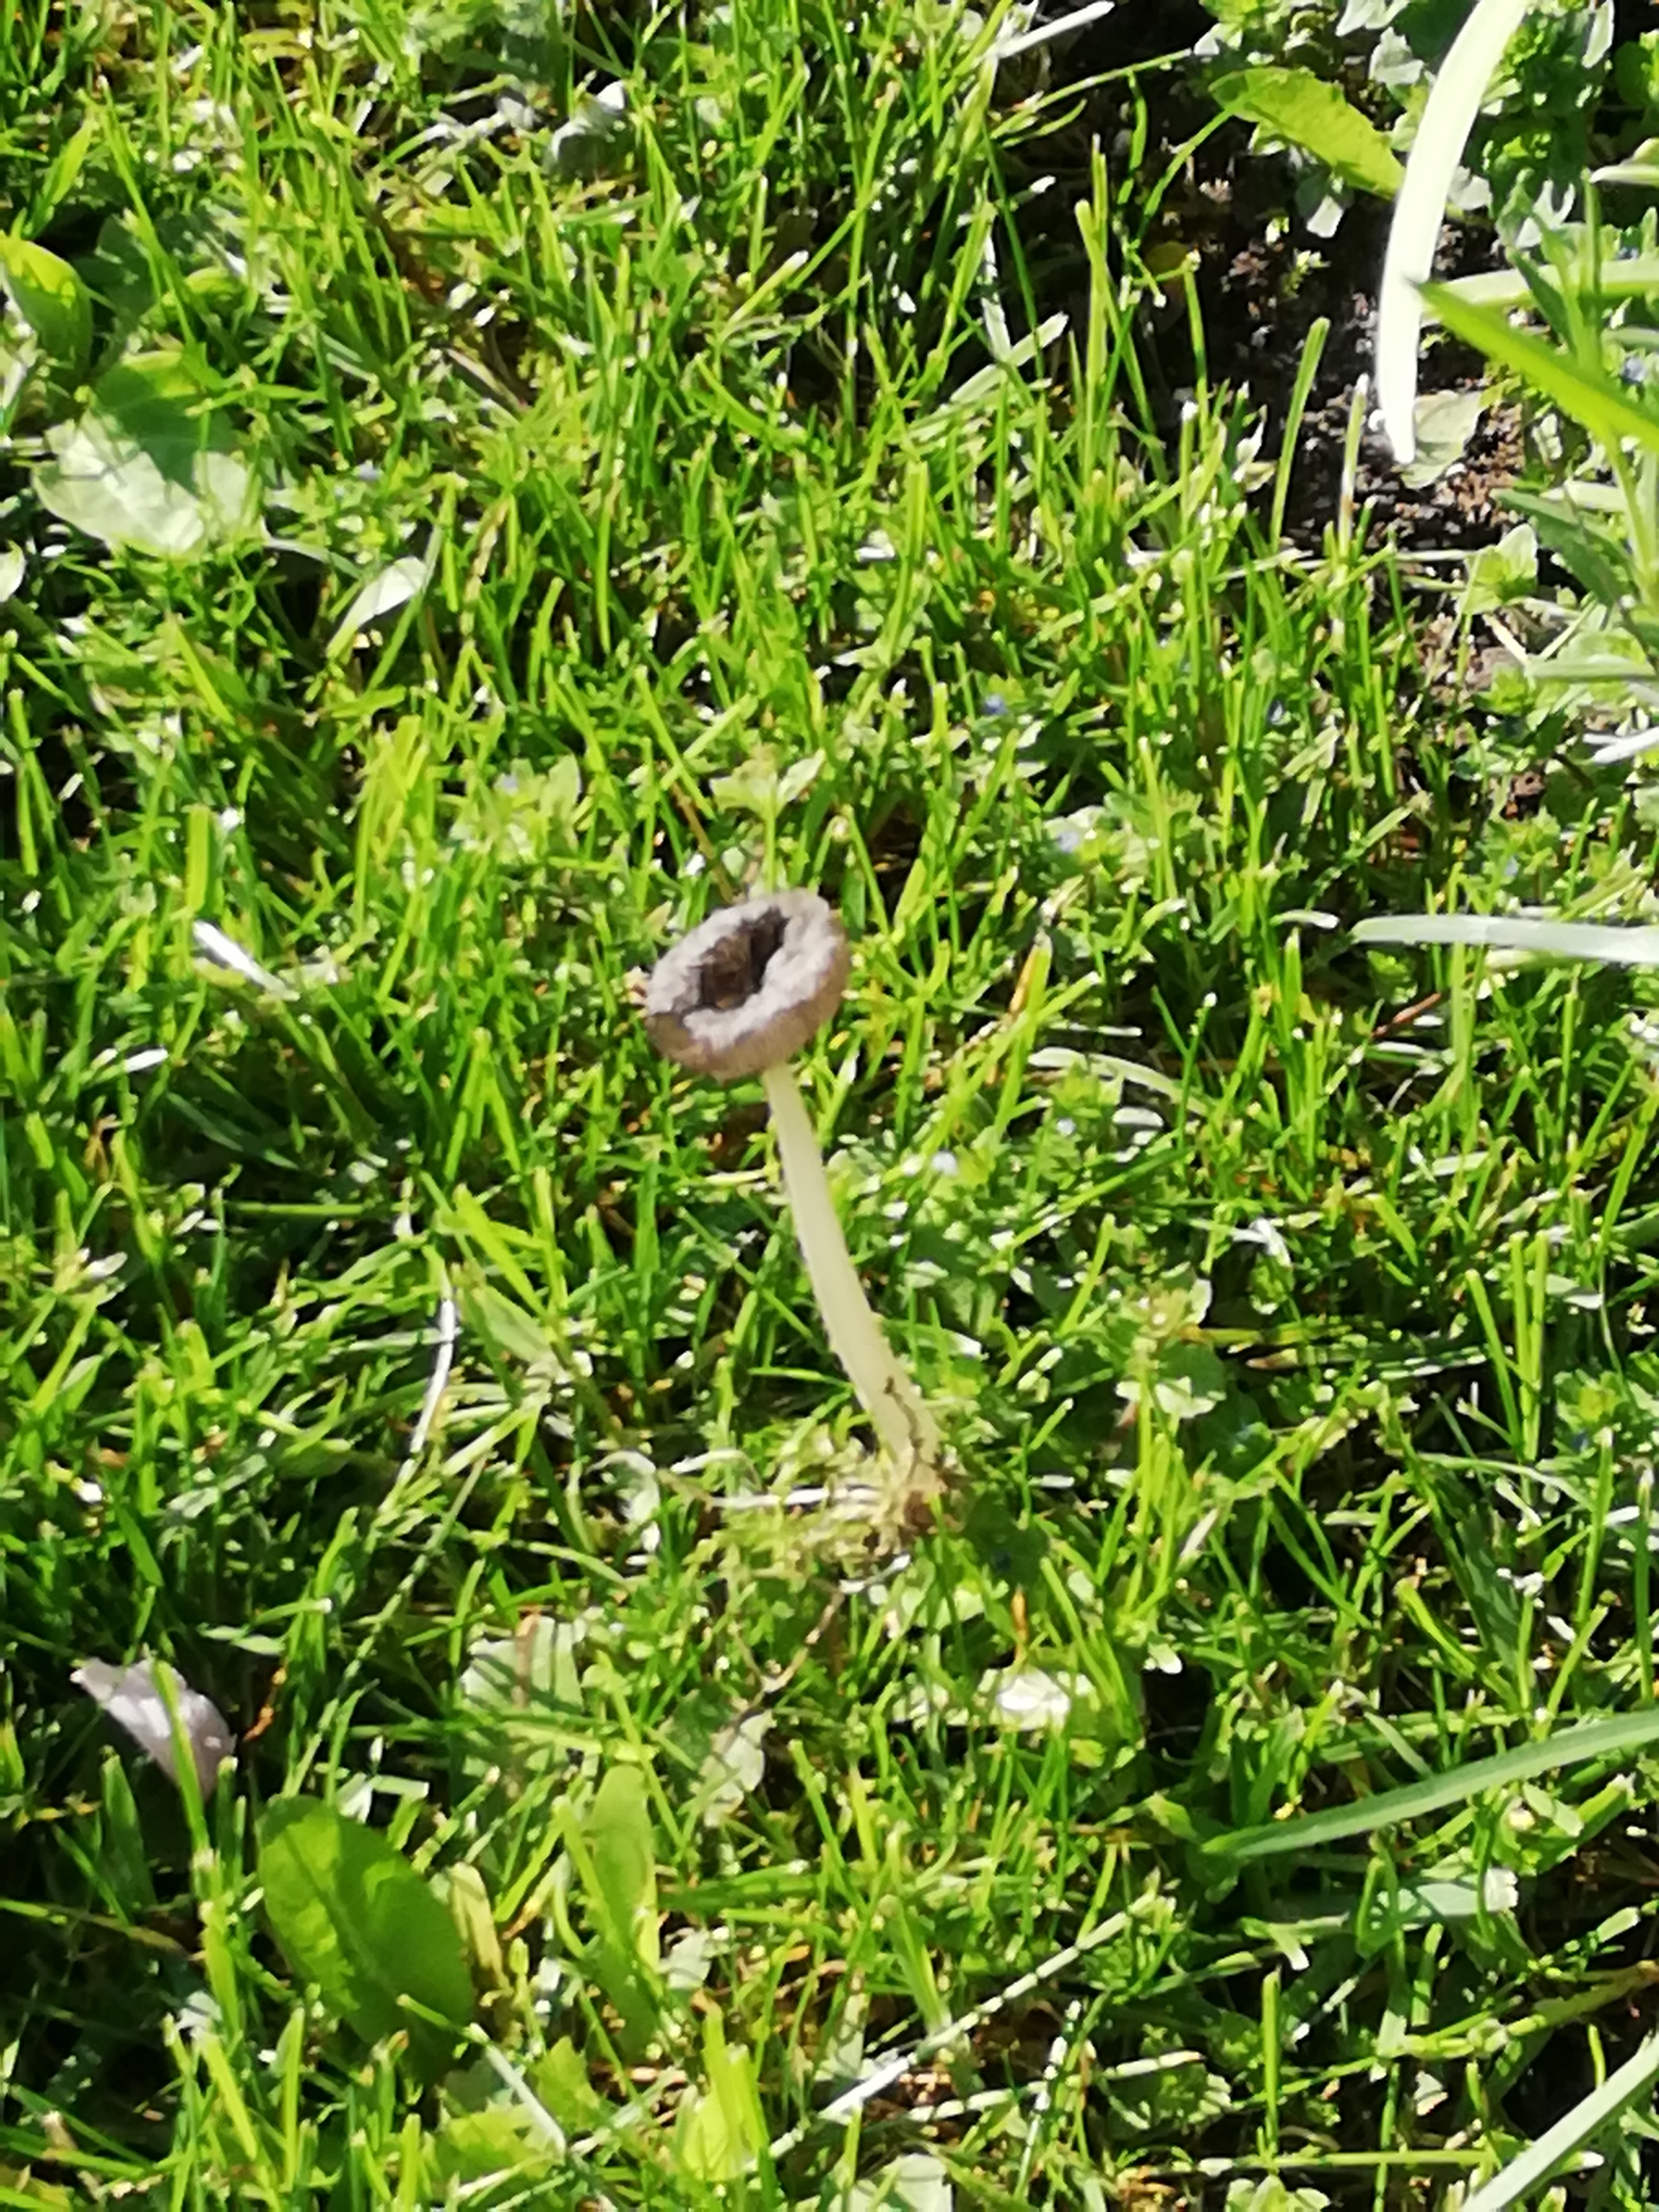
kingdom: Fungi
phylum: Basidiomycota
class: Agaricomycetes
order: Agaricales
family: Psathyrellaceae
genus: Coprinopsis
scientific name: Coprinopsis
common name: Blækhat
